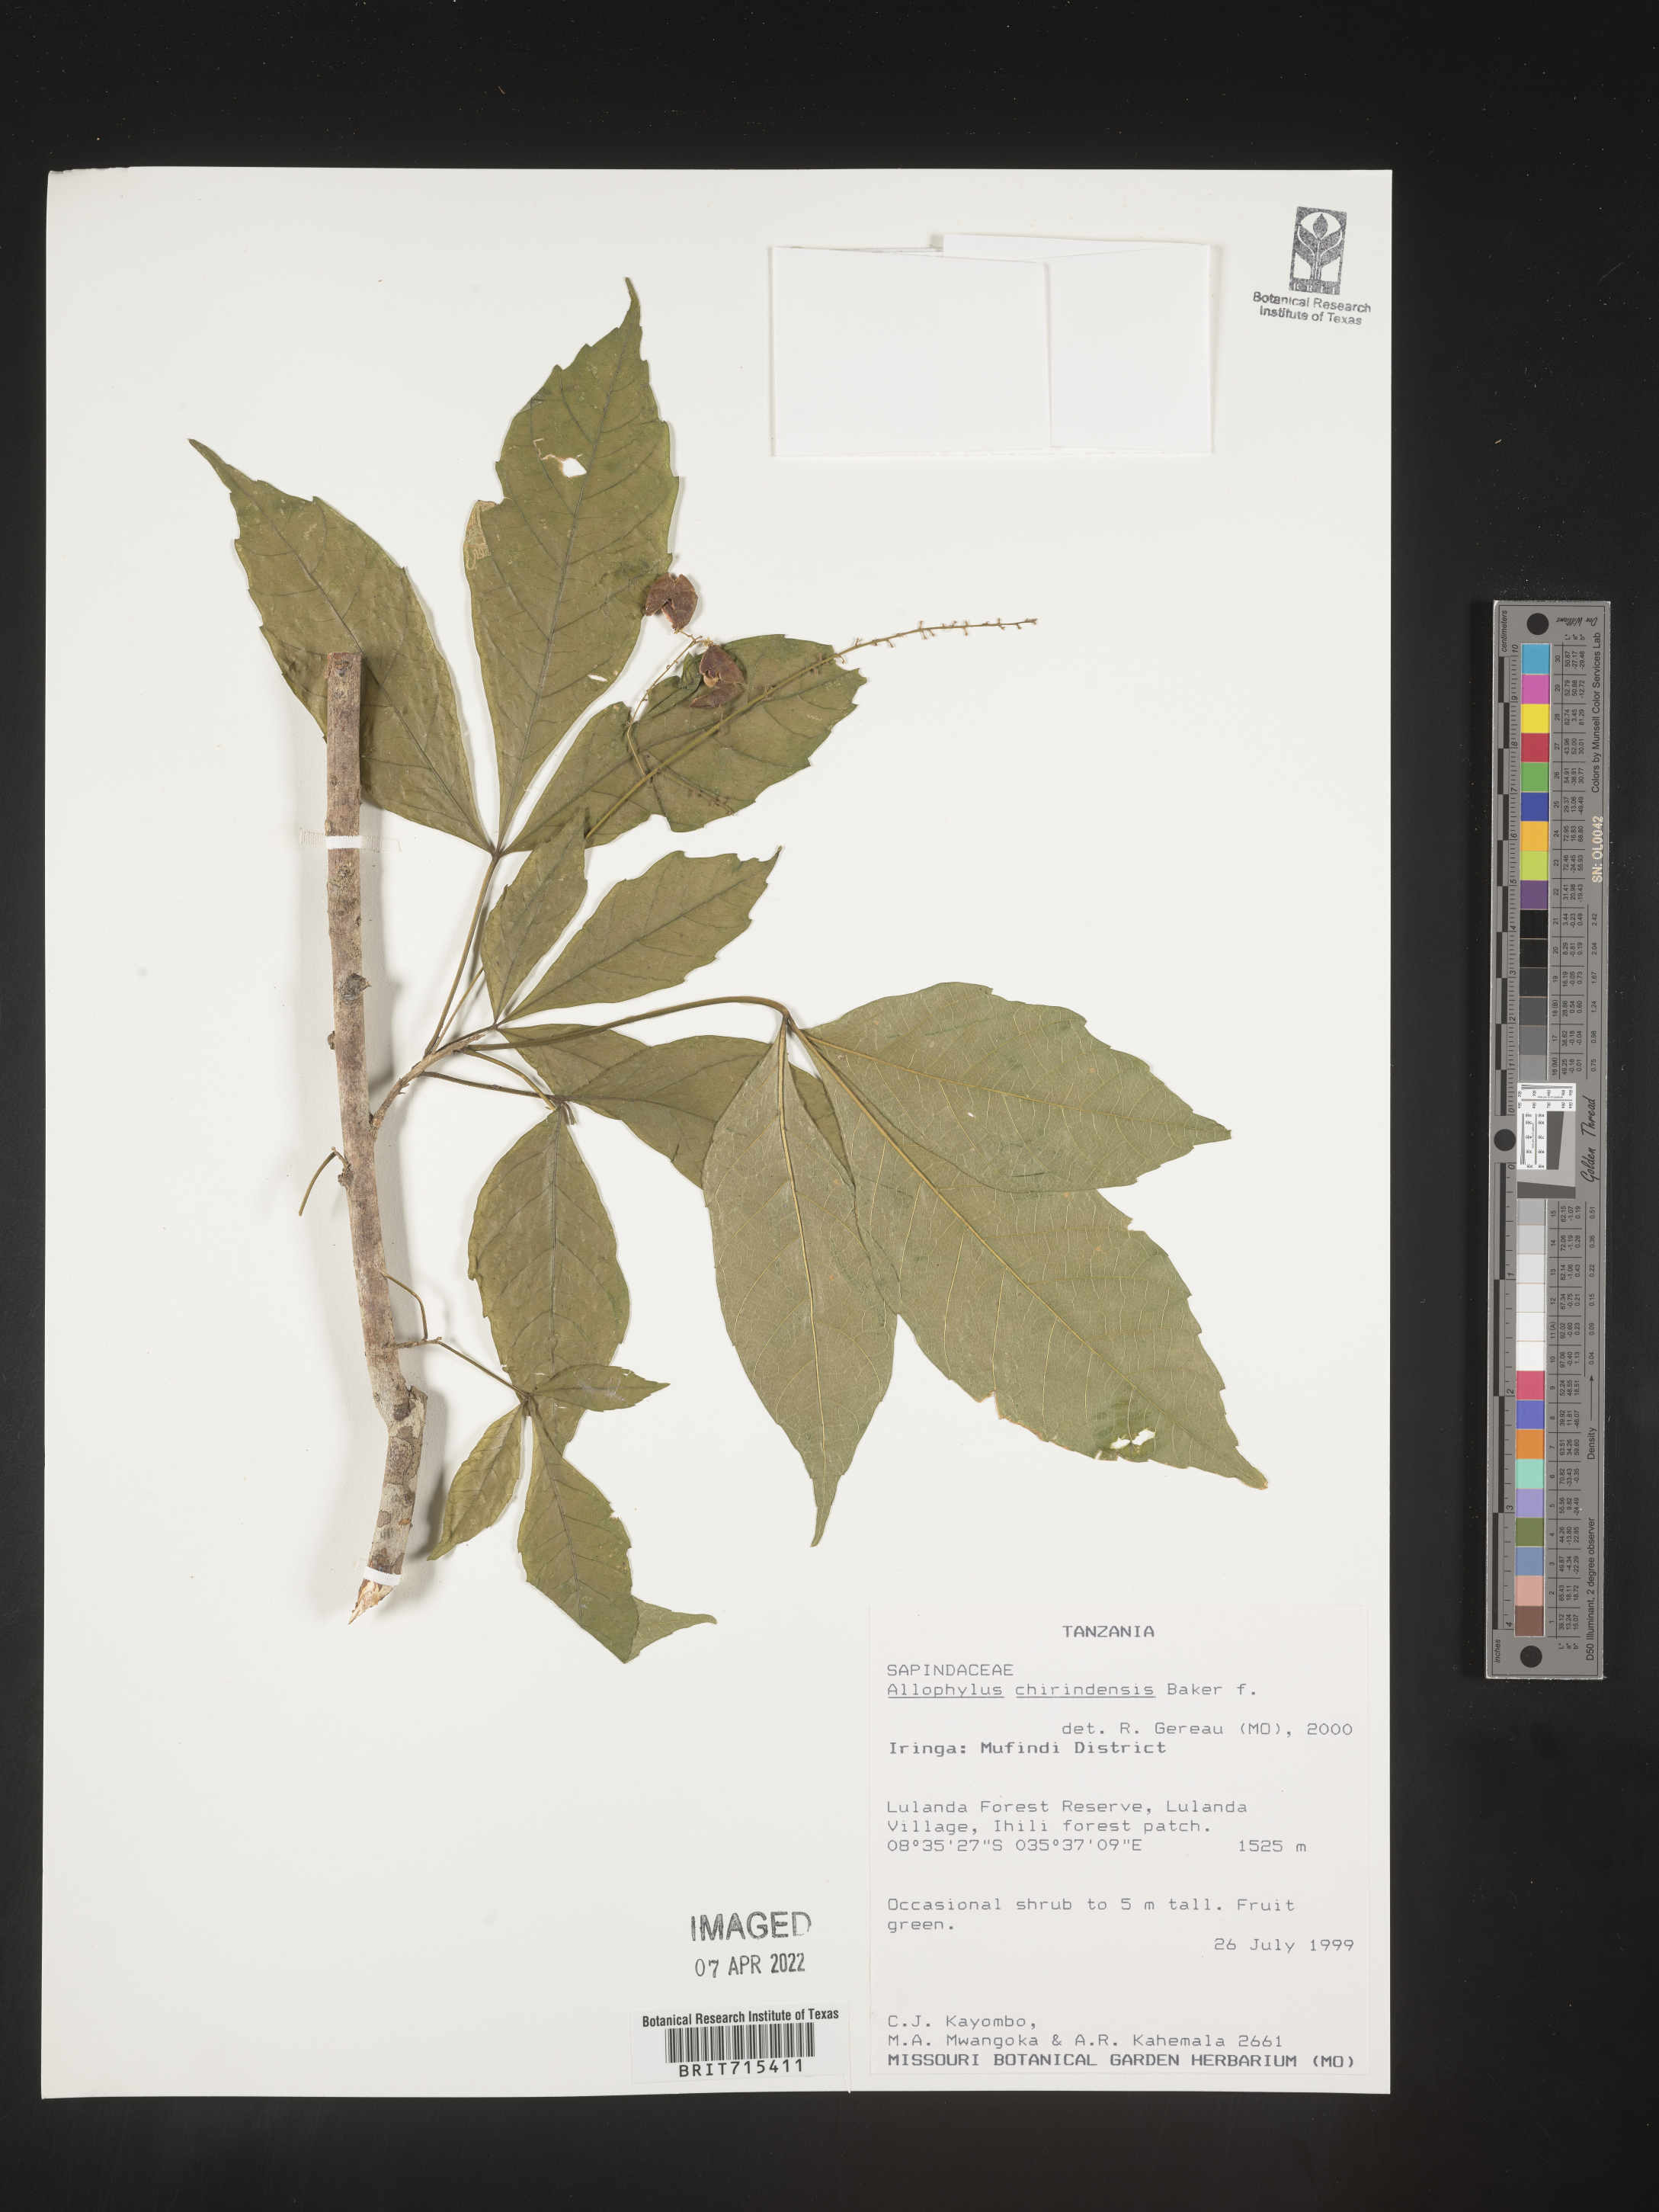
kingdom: Plantae
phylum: Tracheophyta
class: Magnoliopsida
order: Sapindales
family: Sapindaceae
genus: Allophylus
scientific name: Allophylus
